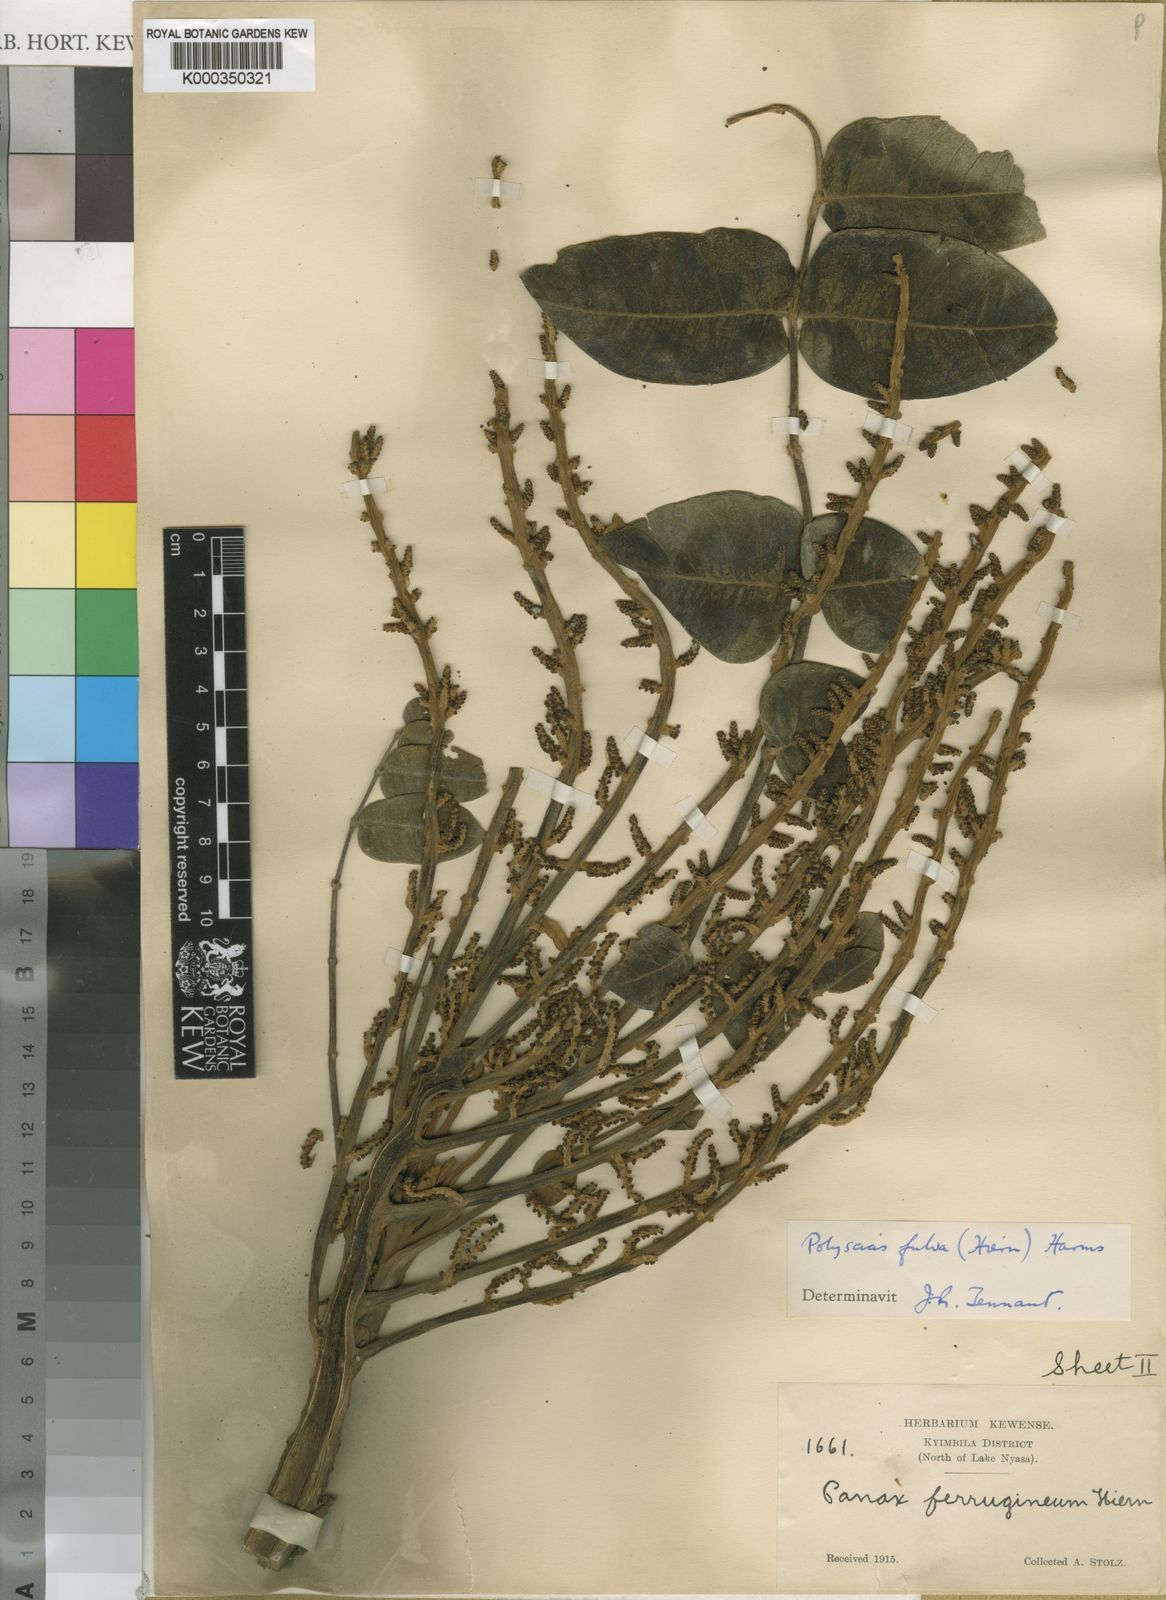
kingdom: Plantae
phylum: Tracheophyta
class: Magnoliopsida
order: Apiales
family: Araliaceae
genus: Polyscias
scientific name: Polyscias fulva
